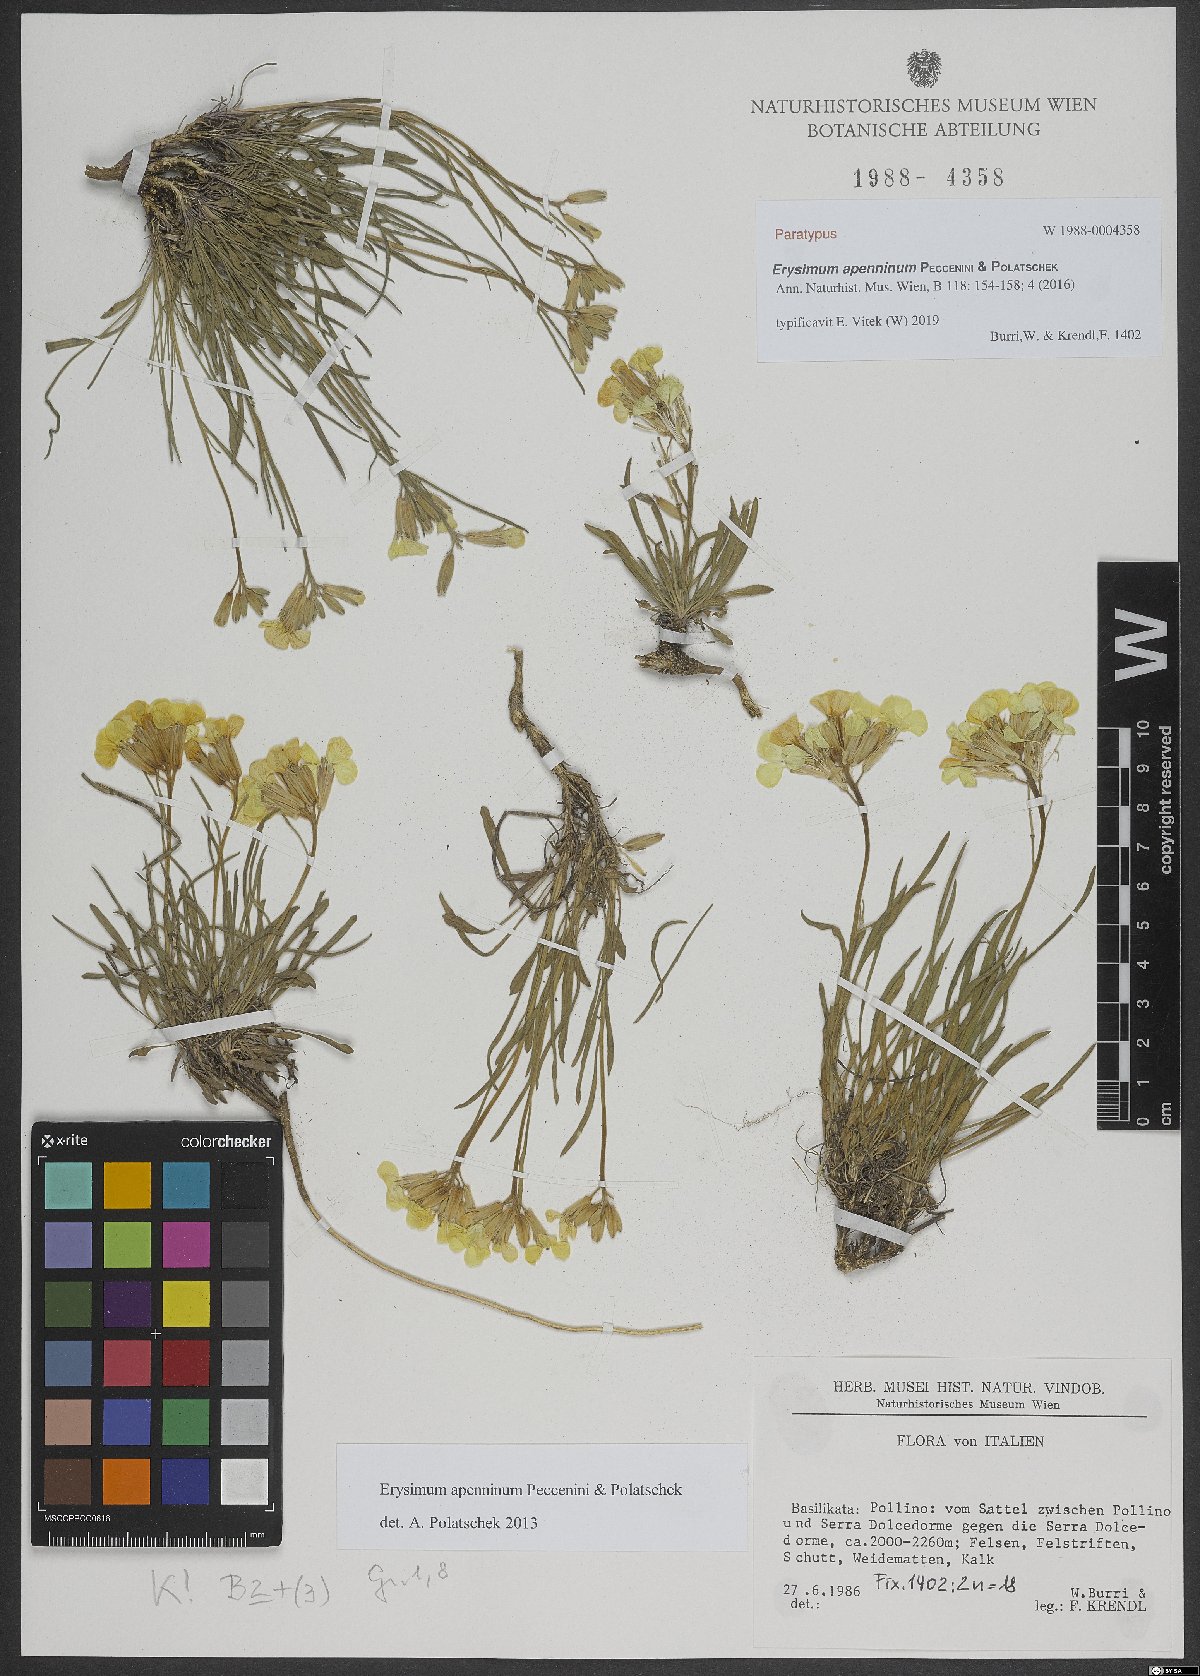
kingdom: Plantae
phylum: Tracheophyta
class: Magnoliopsida
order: Brassicales
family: Brassicaceae
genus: Erysimum
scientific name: Erysimum apenninum
